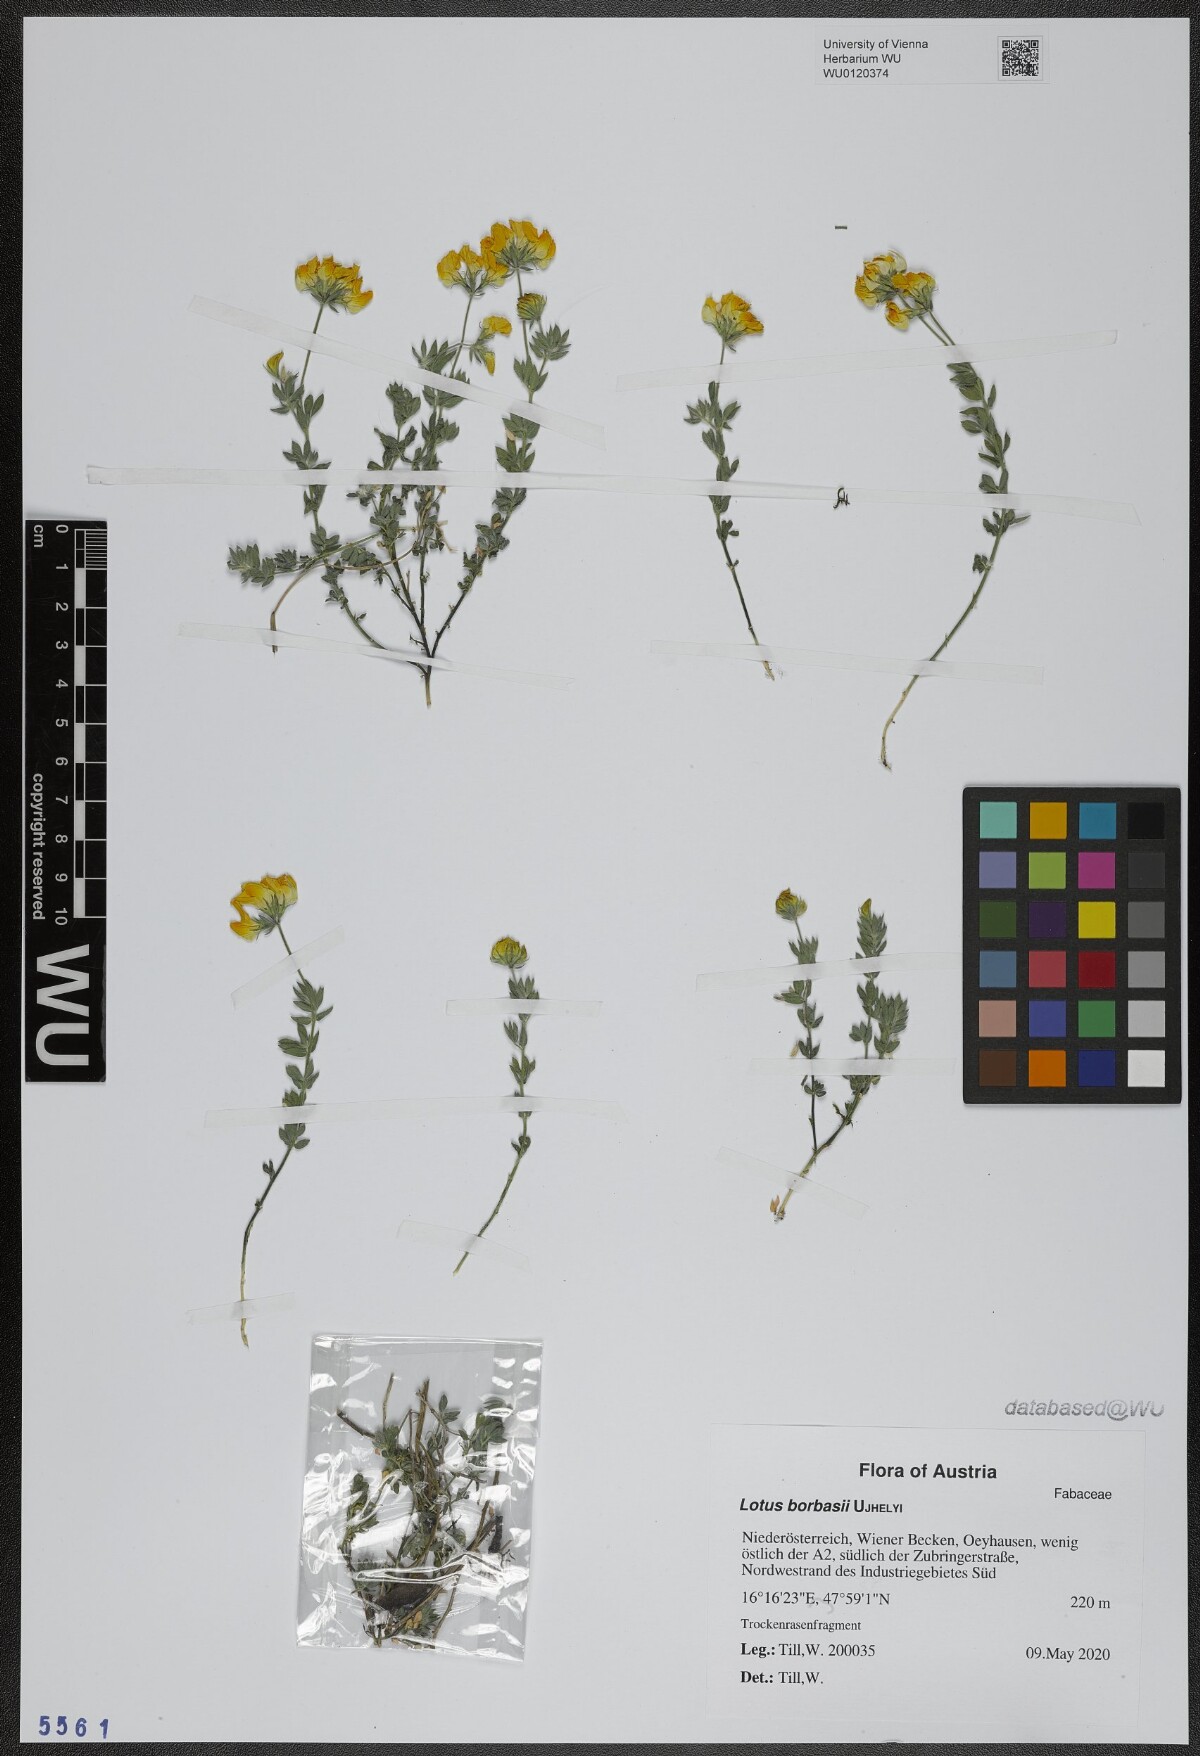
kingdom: Plantae
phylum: Tracheophyta
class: Magnoliopsida
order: Fabales
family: Fabaceae
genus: Lotus
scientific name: Lotus borbasii
